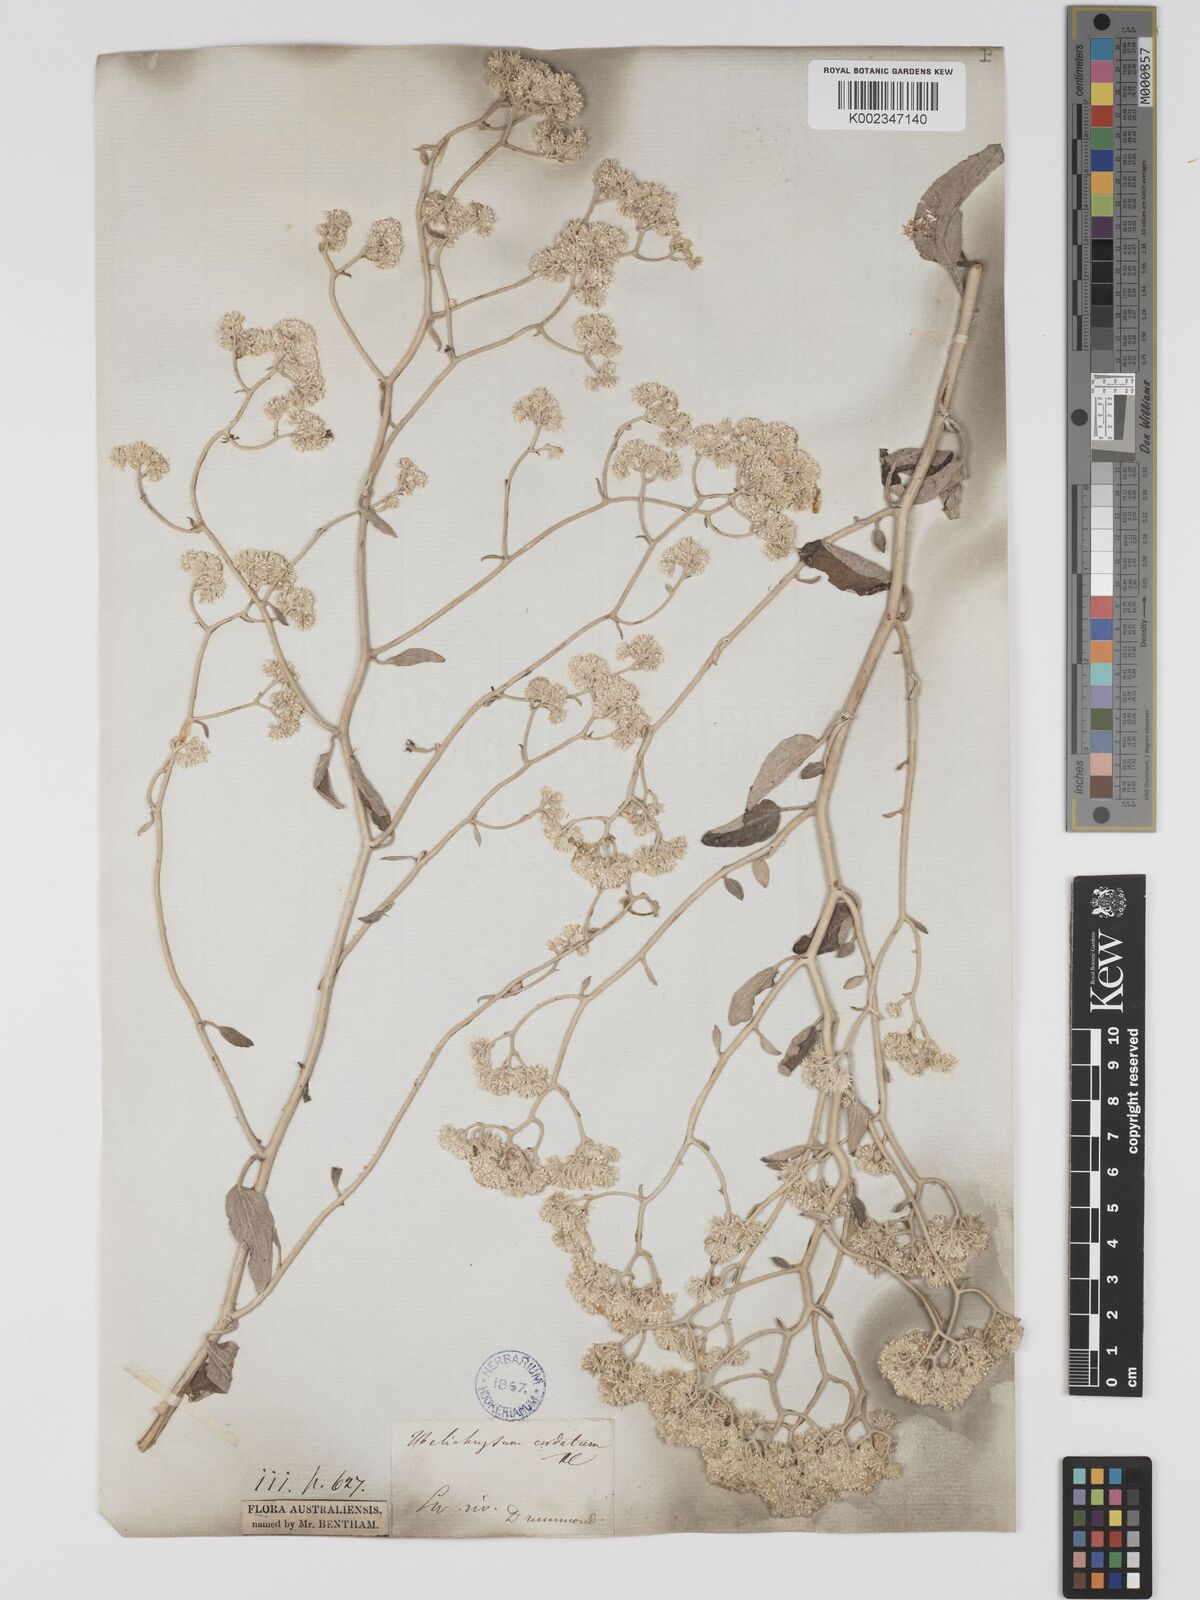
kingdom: Plantae
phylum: Tracheophyta
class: Magnoliopsida
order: Asterales
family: Asteraceae
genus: Ozothamnus
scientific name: Ozothamnus
